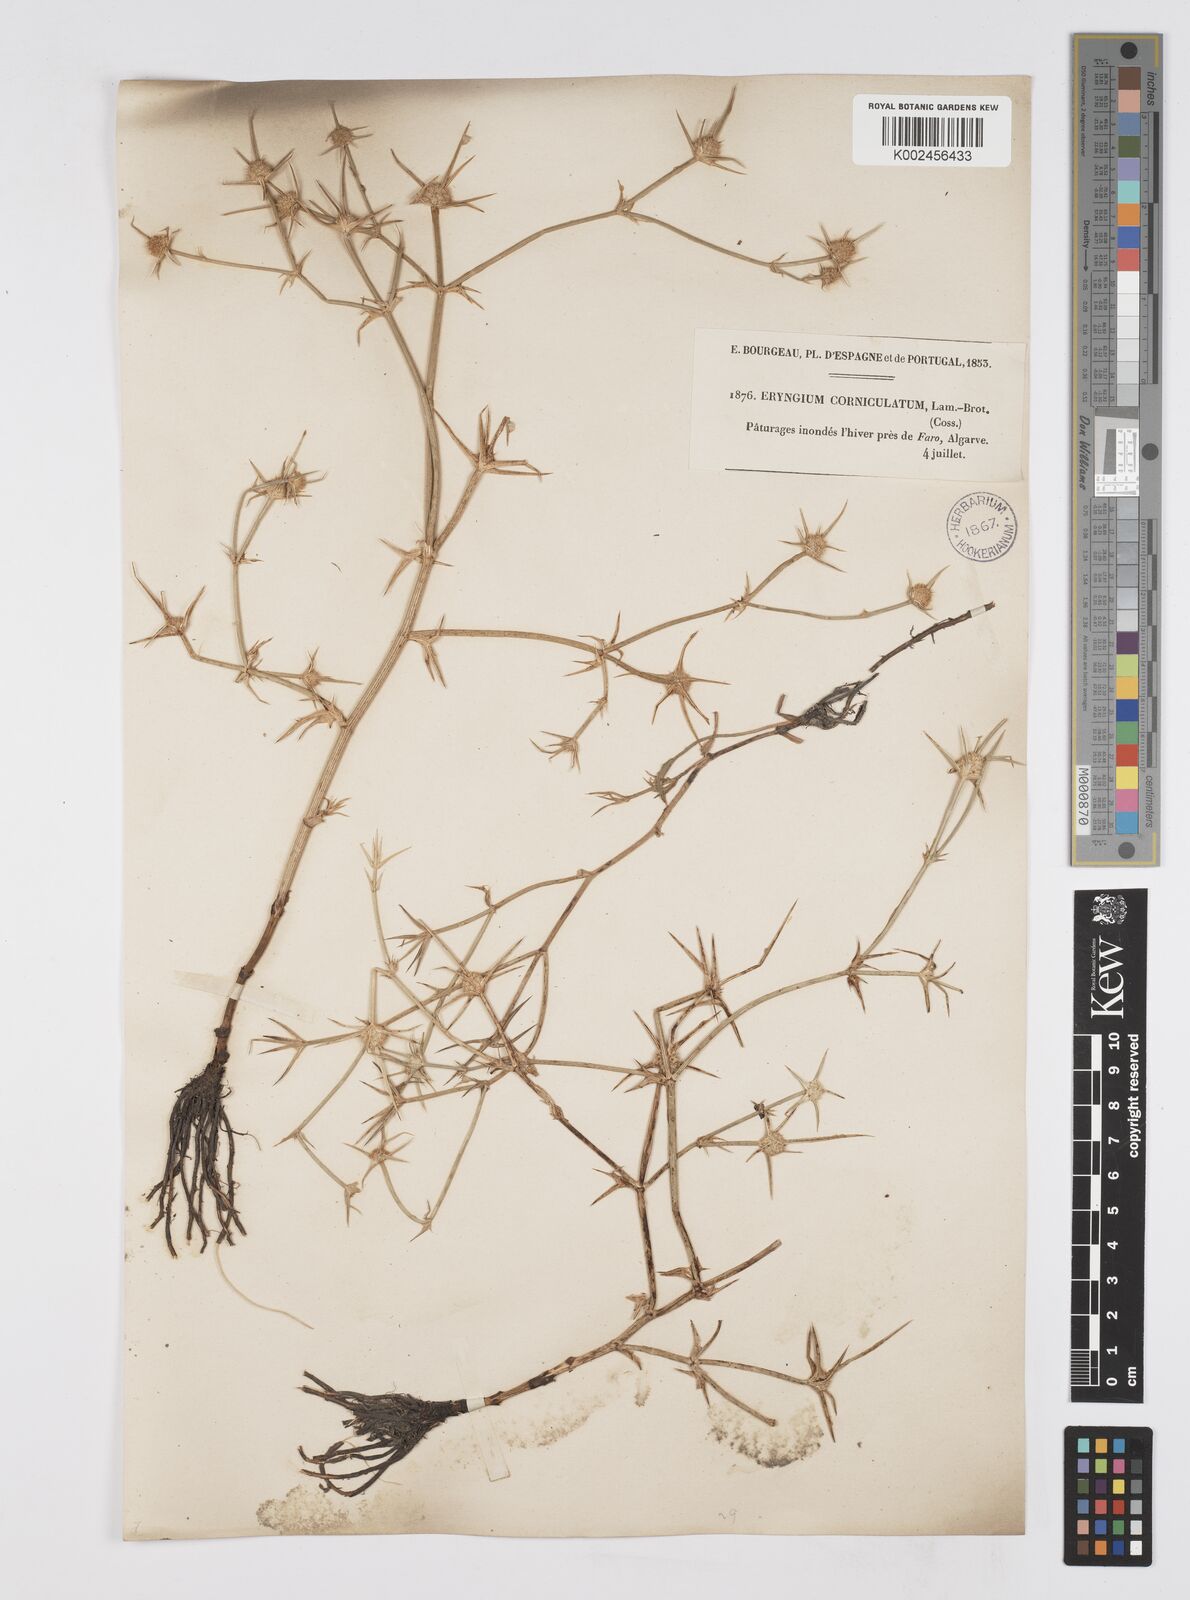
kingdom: Plantae
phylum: Tracheophyta
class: Magnoliopsida
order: Apiales
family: Apiaceae
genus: Eryngium
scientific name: Eryngium corniculatum
